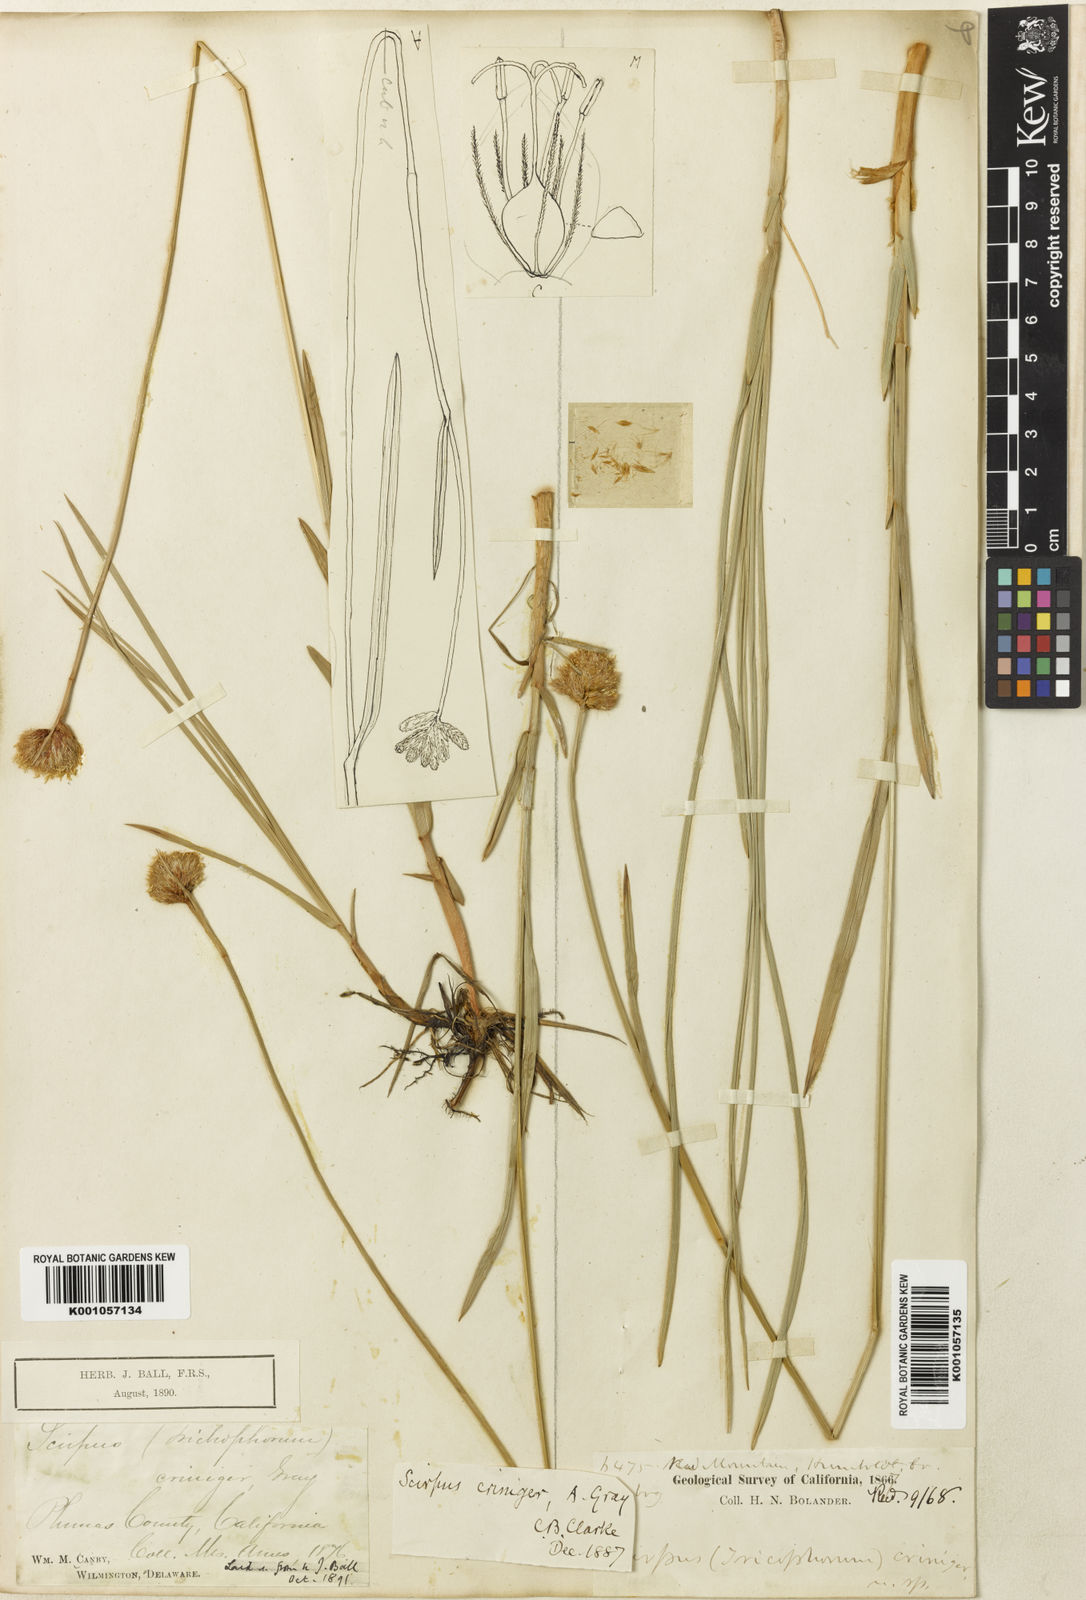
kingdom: Plantae
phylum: Tracheophyta
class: Liliopsida
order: Poales
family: Cyperaceae
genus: Calliscirpus
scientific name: Calliscirpus criniger
